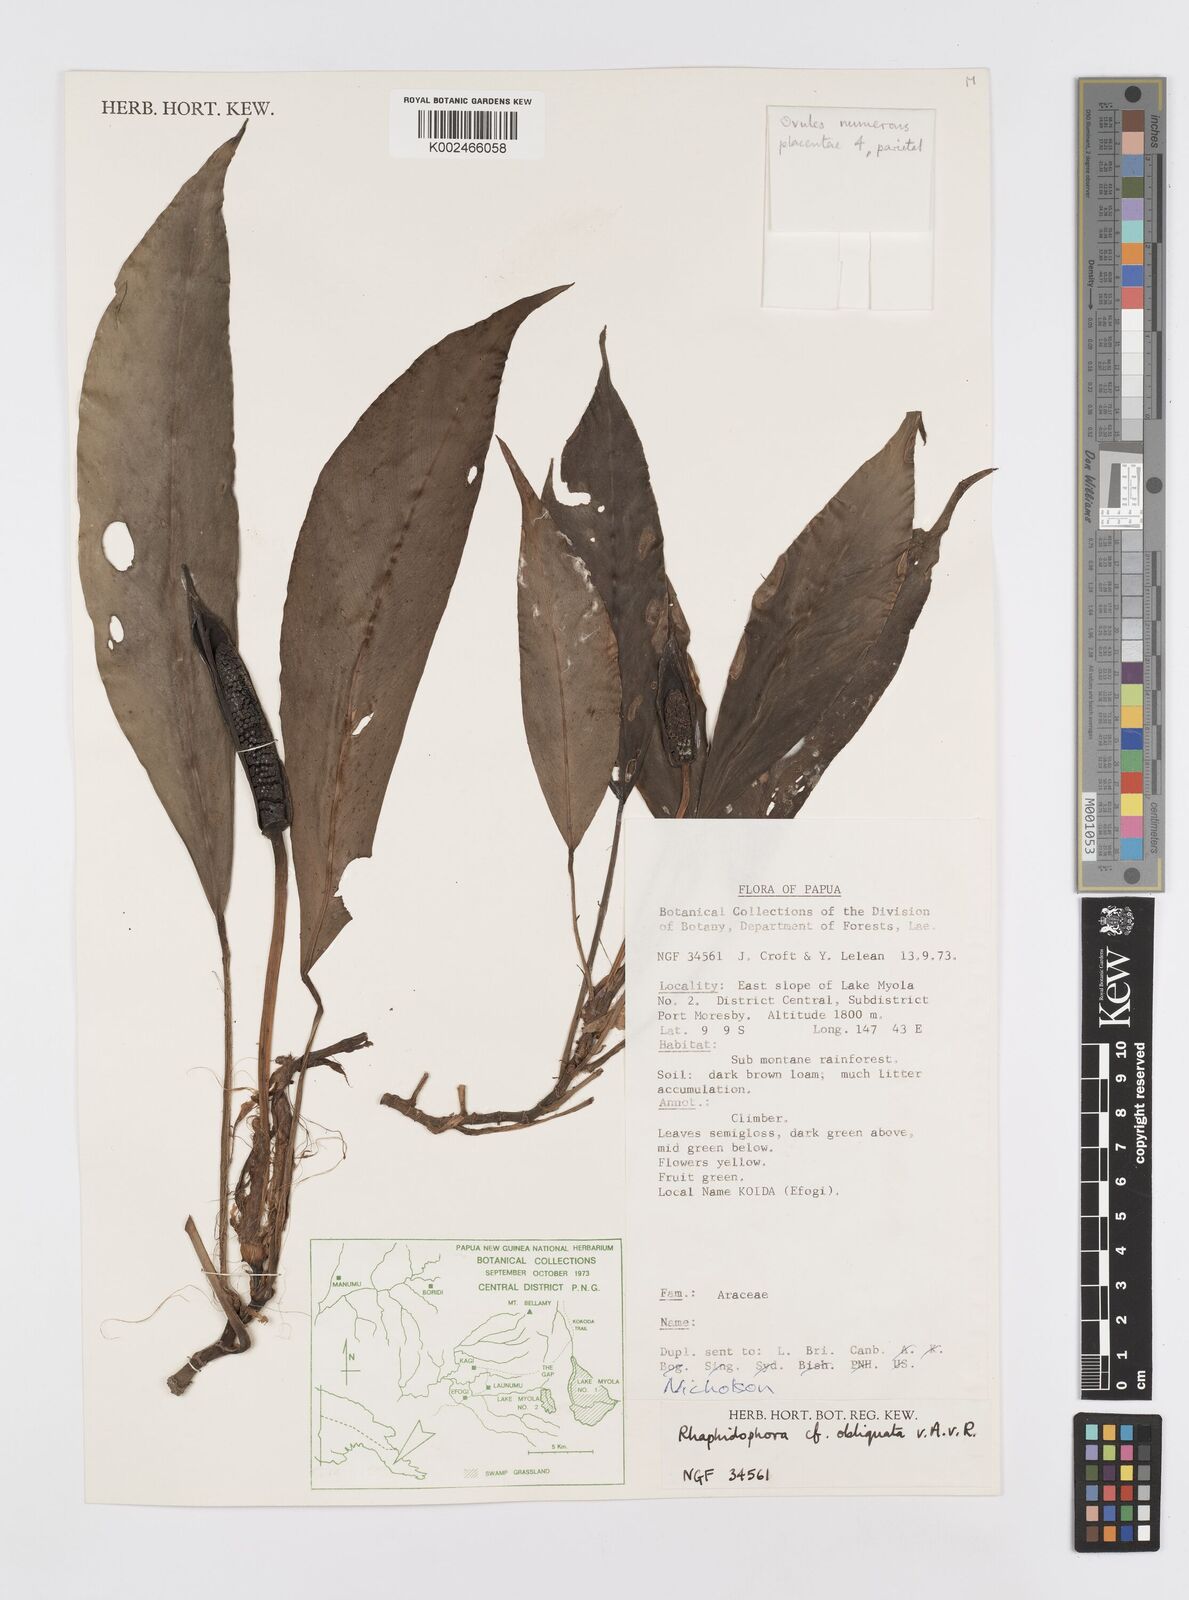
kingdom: Plantae
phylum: Tracheophyta
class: Liliopsida
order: Alismatales
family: Araceae
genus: Rhaphidophora
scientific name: Rhaphidophora kokodensis
